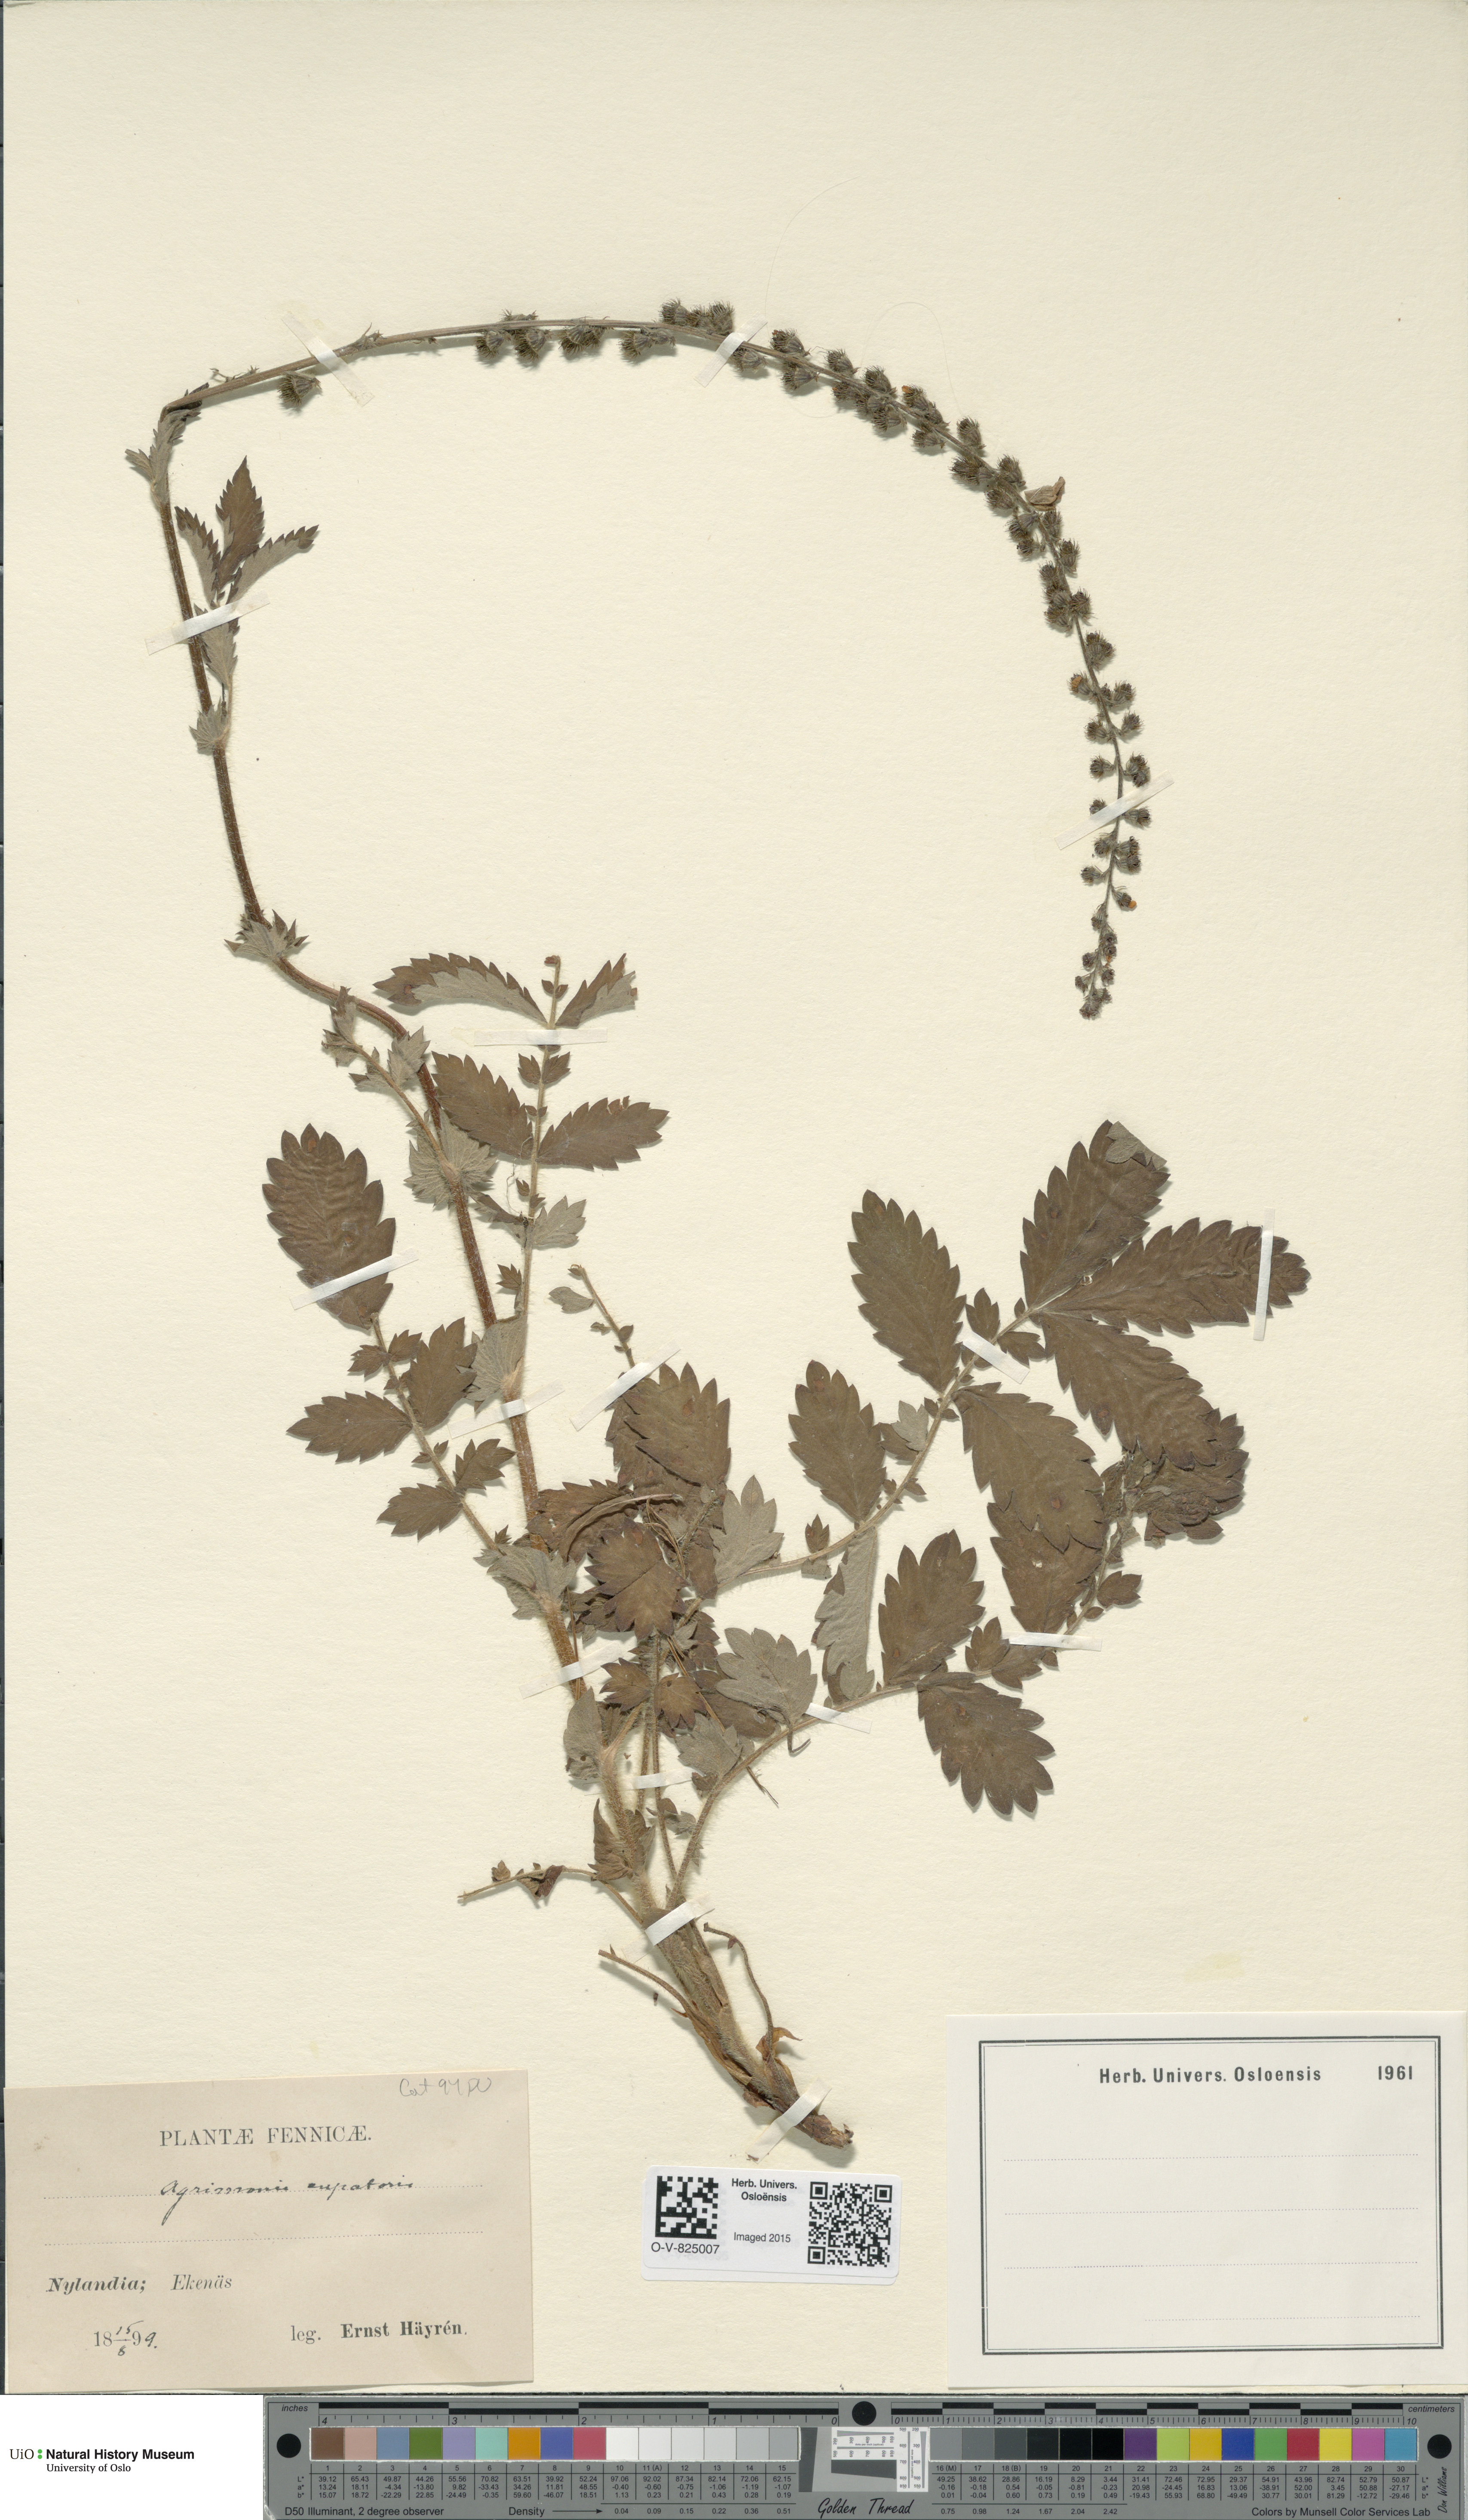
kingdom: Plantae
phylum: Tracheophyta
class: Magnoliopsida
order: Rosales
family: Rosaceae
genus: Agrimonia
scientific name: Agrimonia eupatoria
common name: Agrimony
